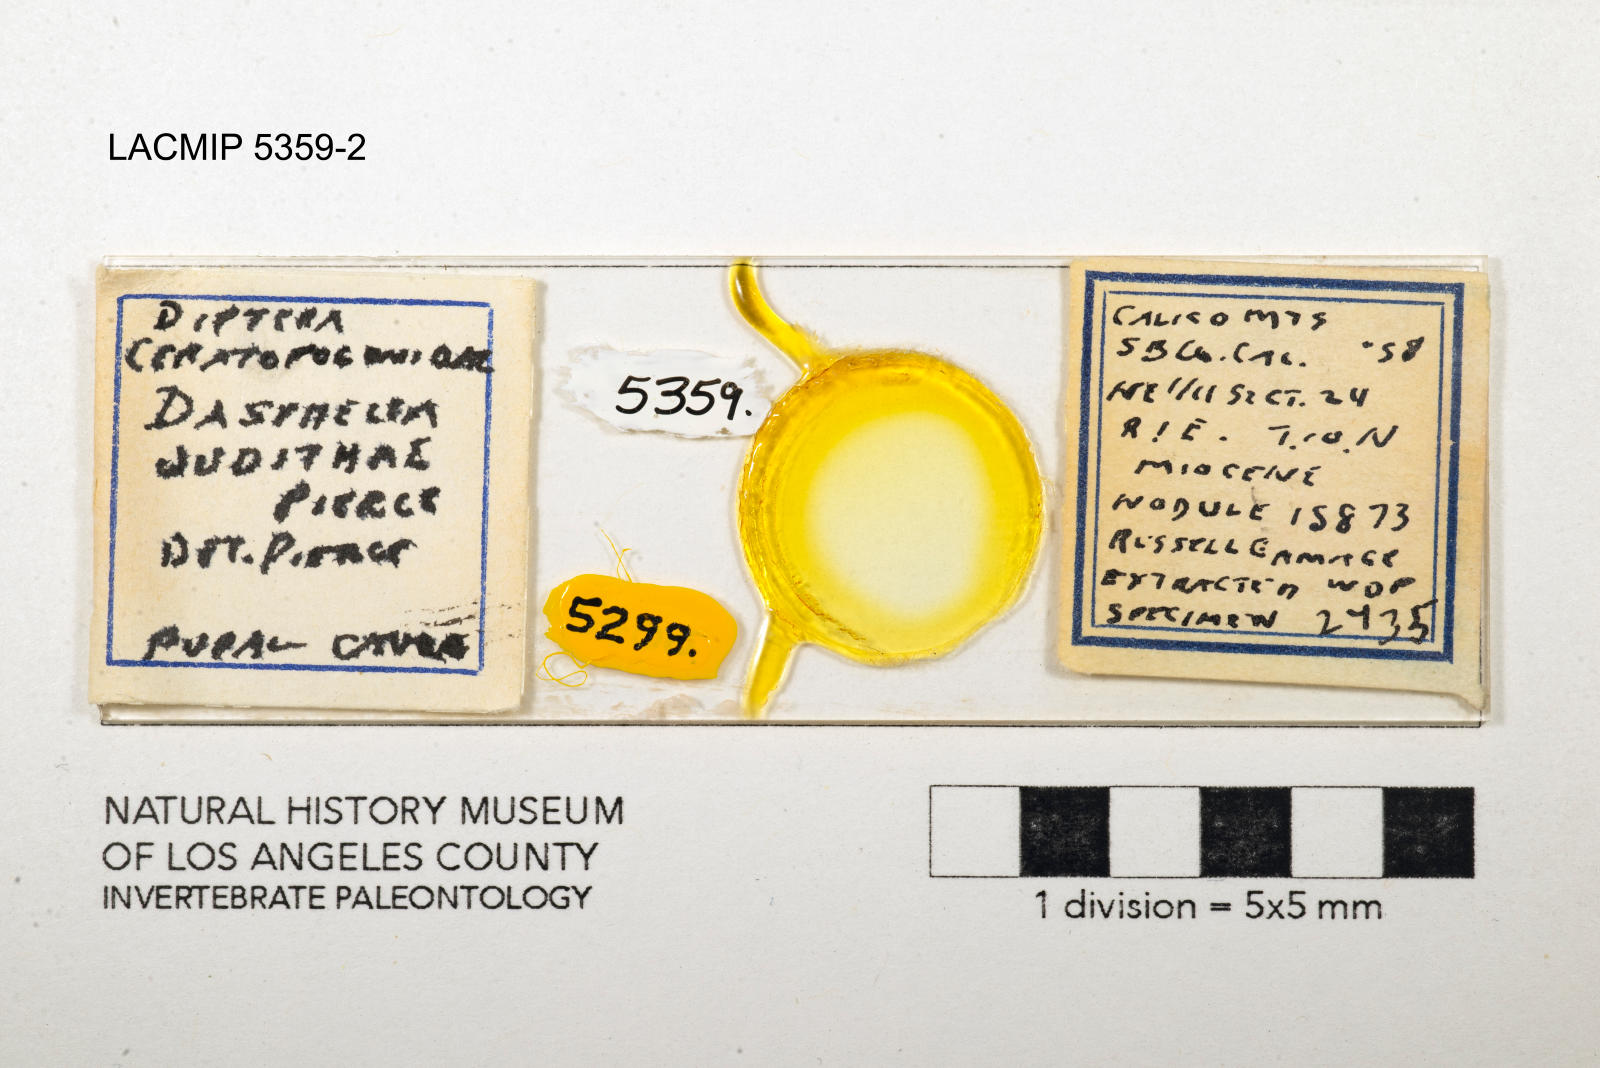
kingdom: Animalia
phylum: Arthropoda
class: Insecta
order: Diptera
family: Ceratopogonidae
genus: Dasyhelea
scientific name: Dasyhelea judithae
